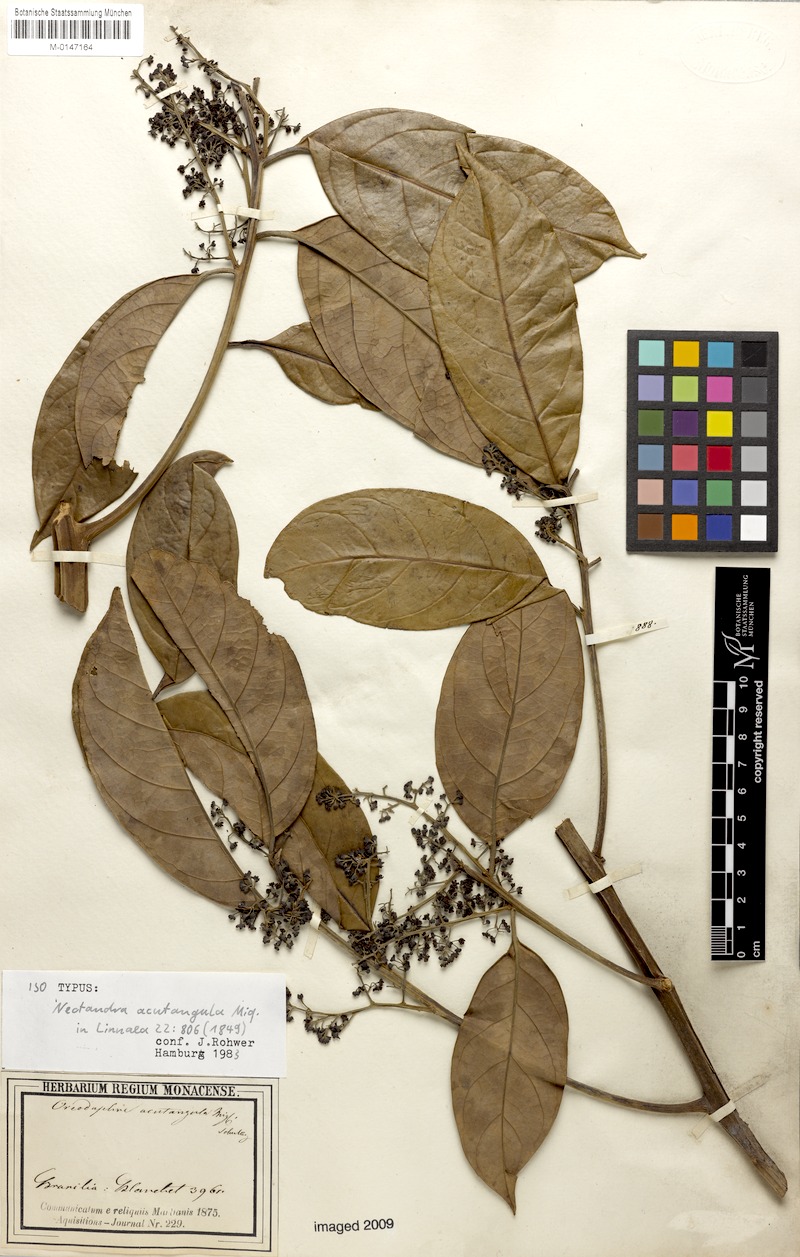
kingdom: Plantae
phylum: Tracheophyta
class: Magnoliopsida
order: Laurales
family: Lauraceae
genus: Ocotea
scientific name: Ocotea acutangula
